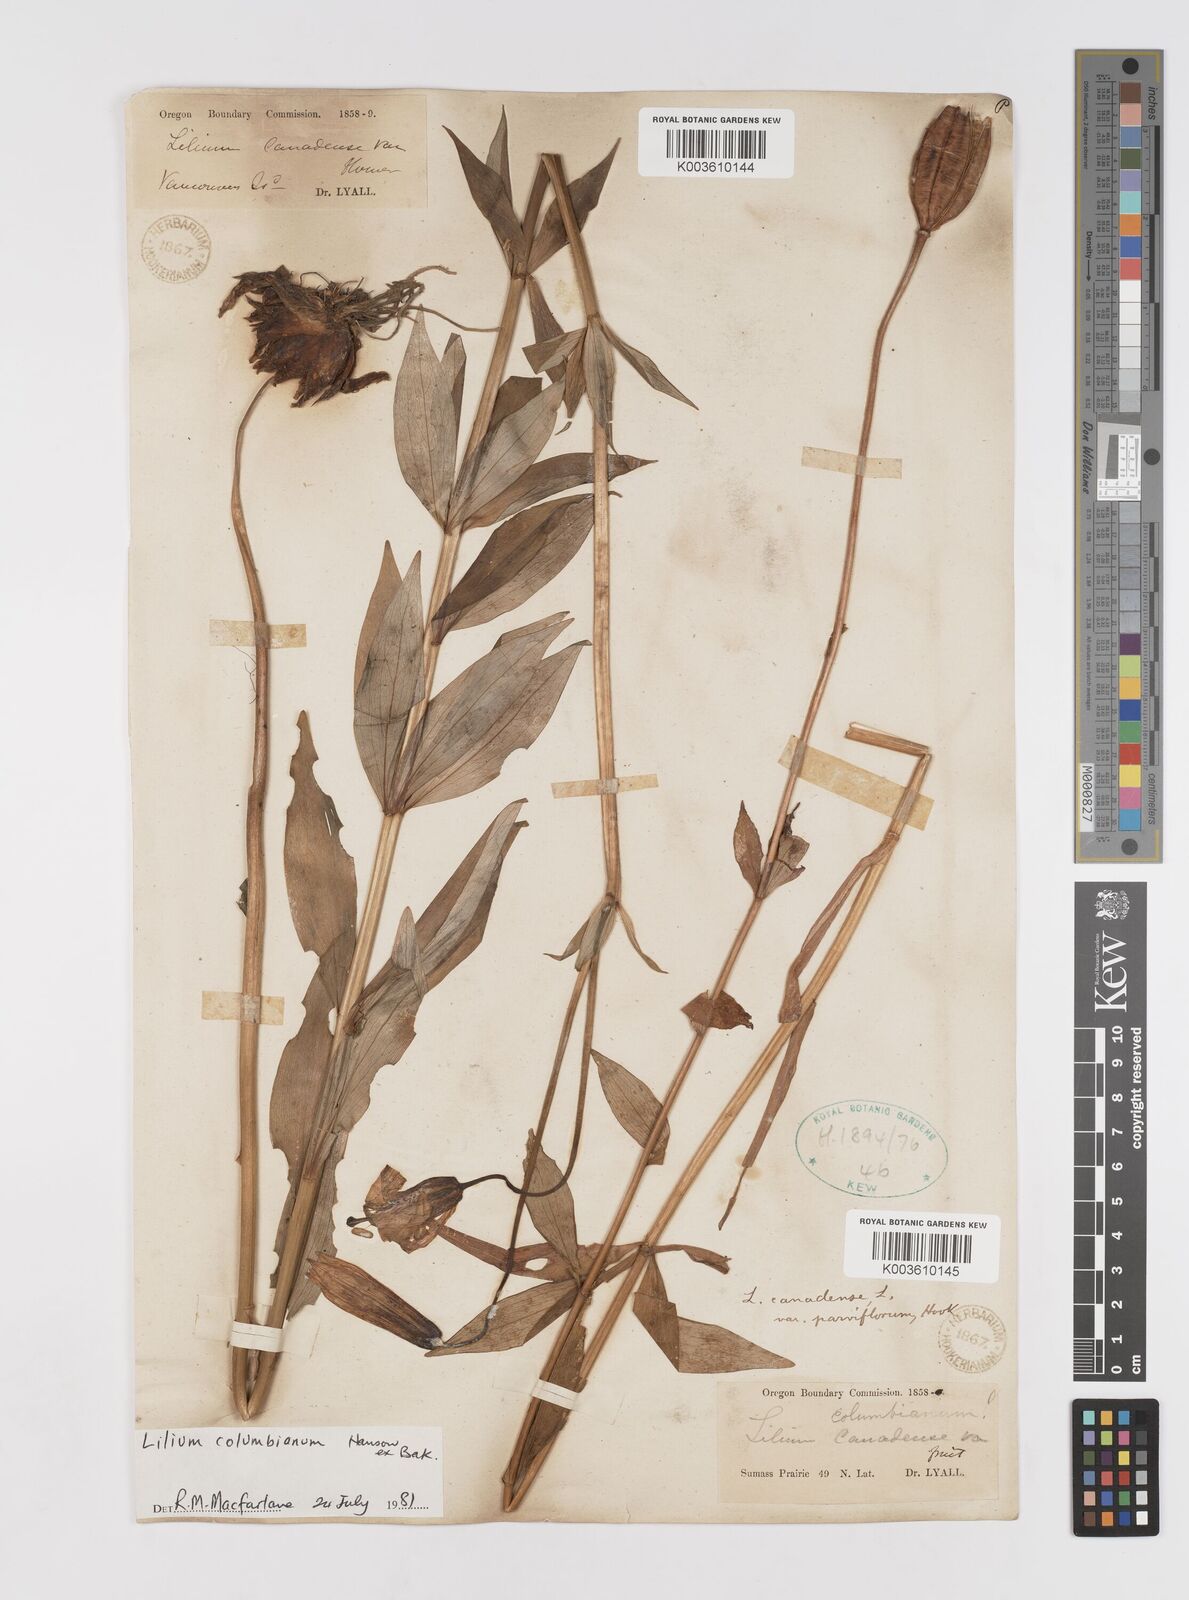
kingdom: Plantae
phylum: Tracheophyta
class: Liliopsida
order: Liliales
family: Liliaceae
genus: Lilium
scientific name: Lilium columbianum
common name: Columbia lily
